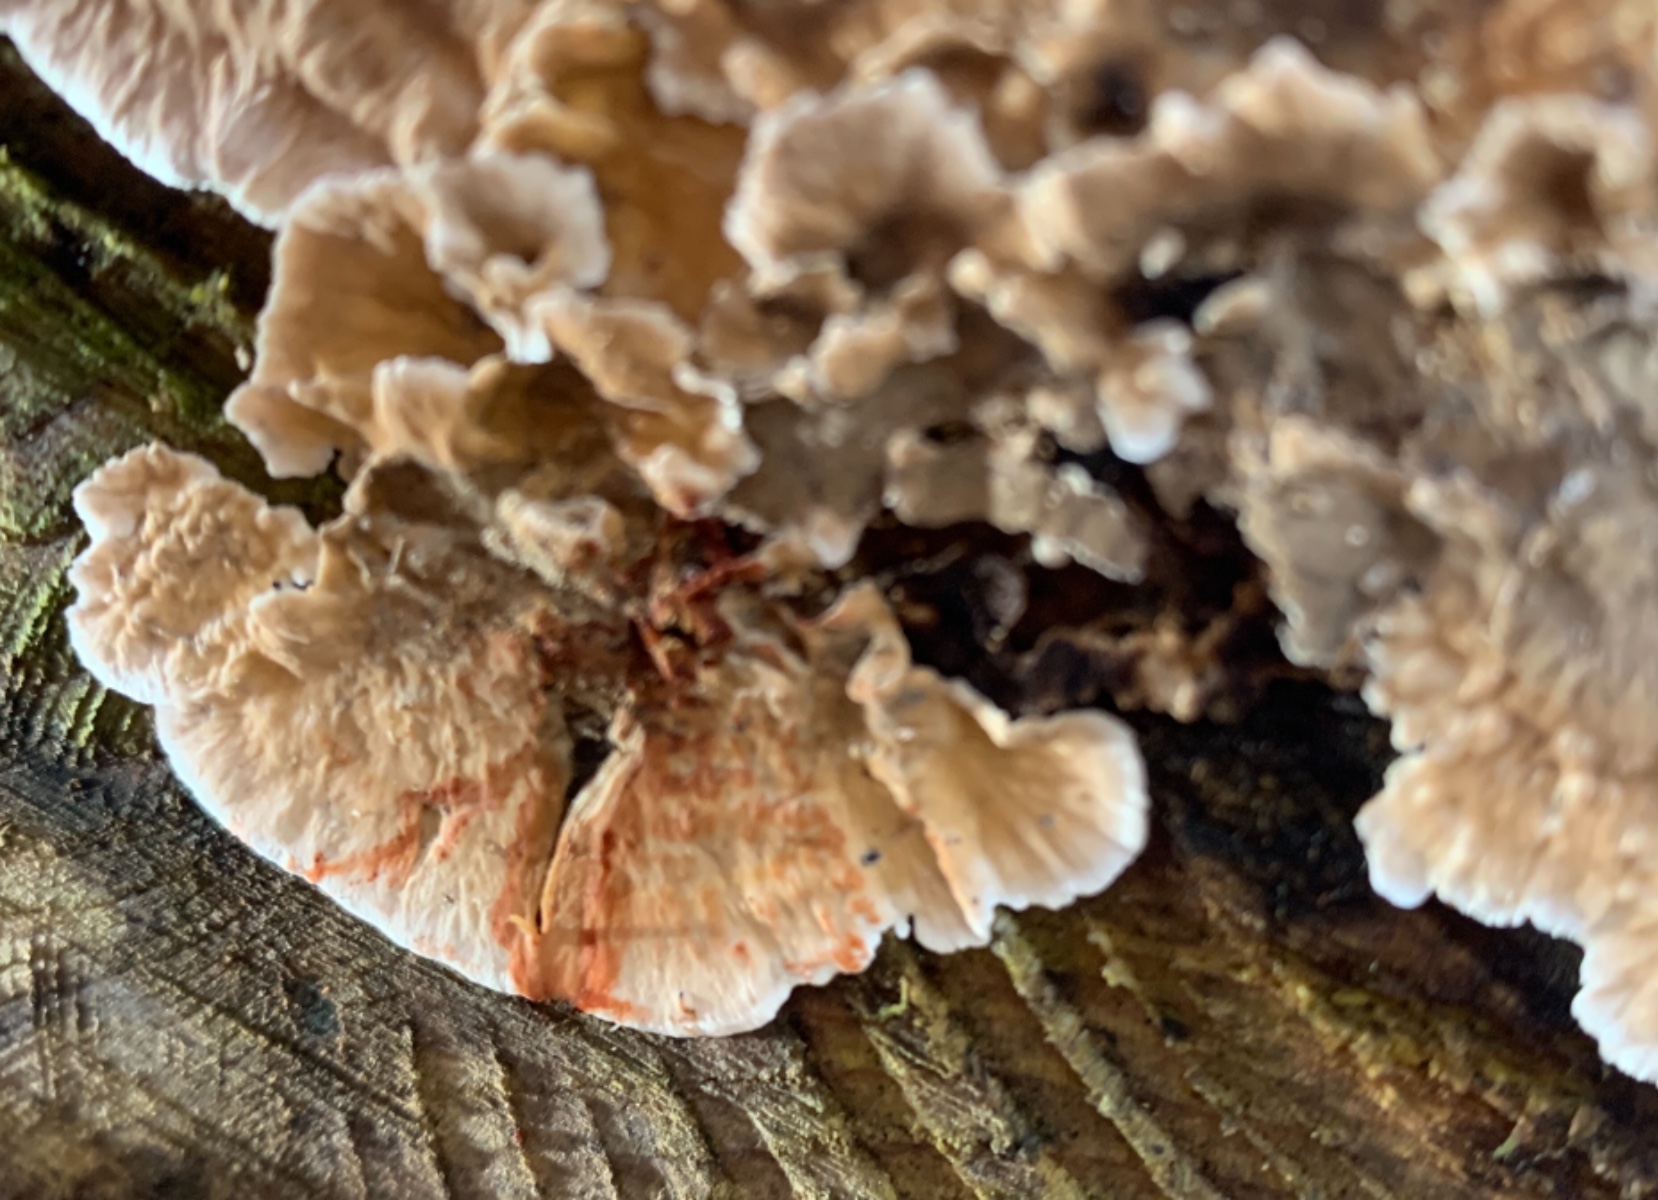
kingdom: Fungi
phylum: Basidiomycota
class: Agaricomycetes
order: Russulales
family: Stereaceae
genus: Stereum
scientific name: Stereum sanguinolentum
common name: blødende lædersvamp
